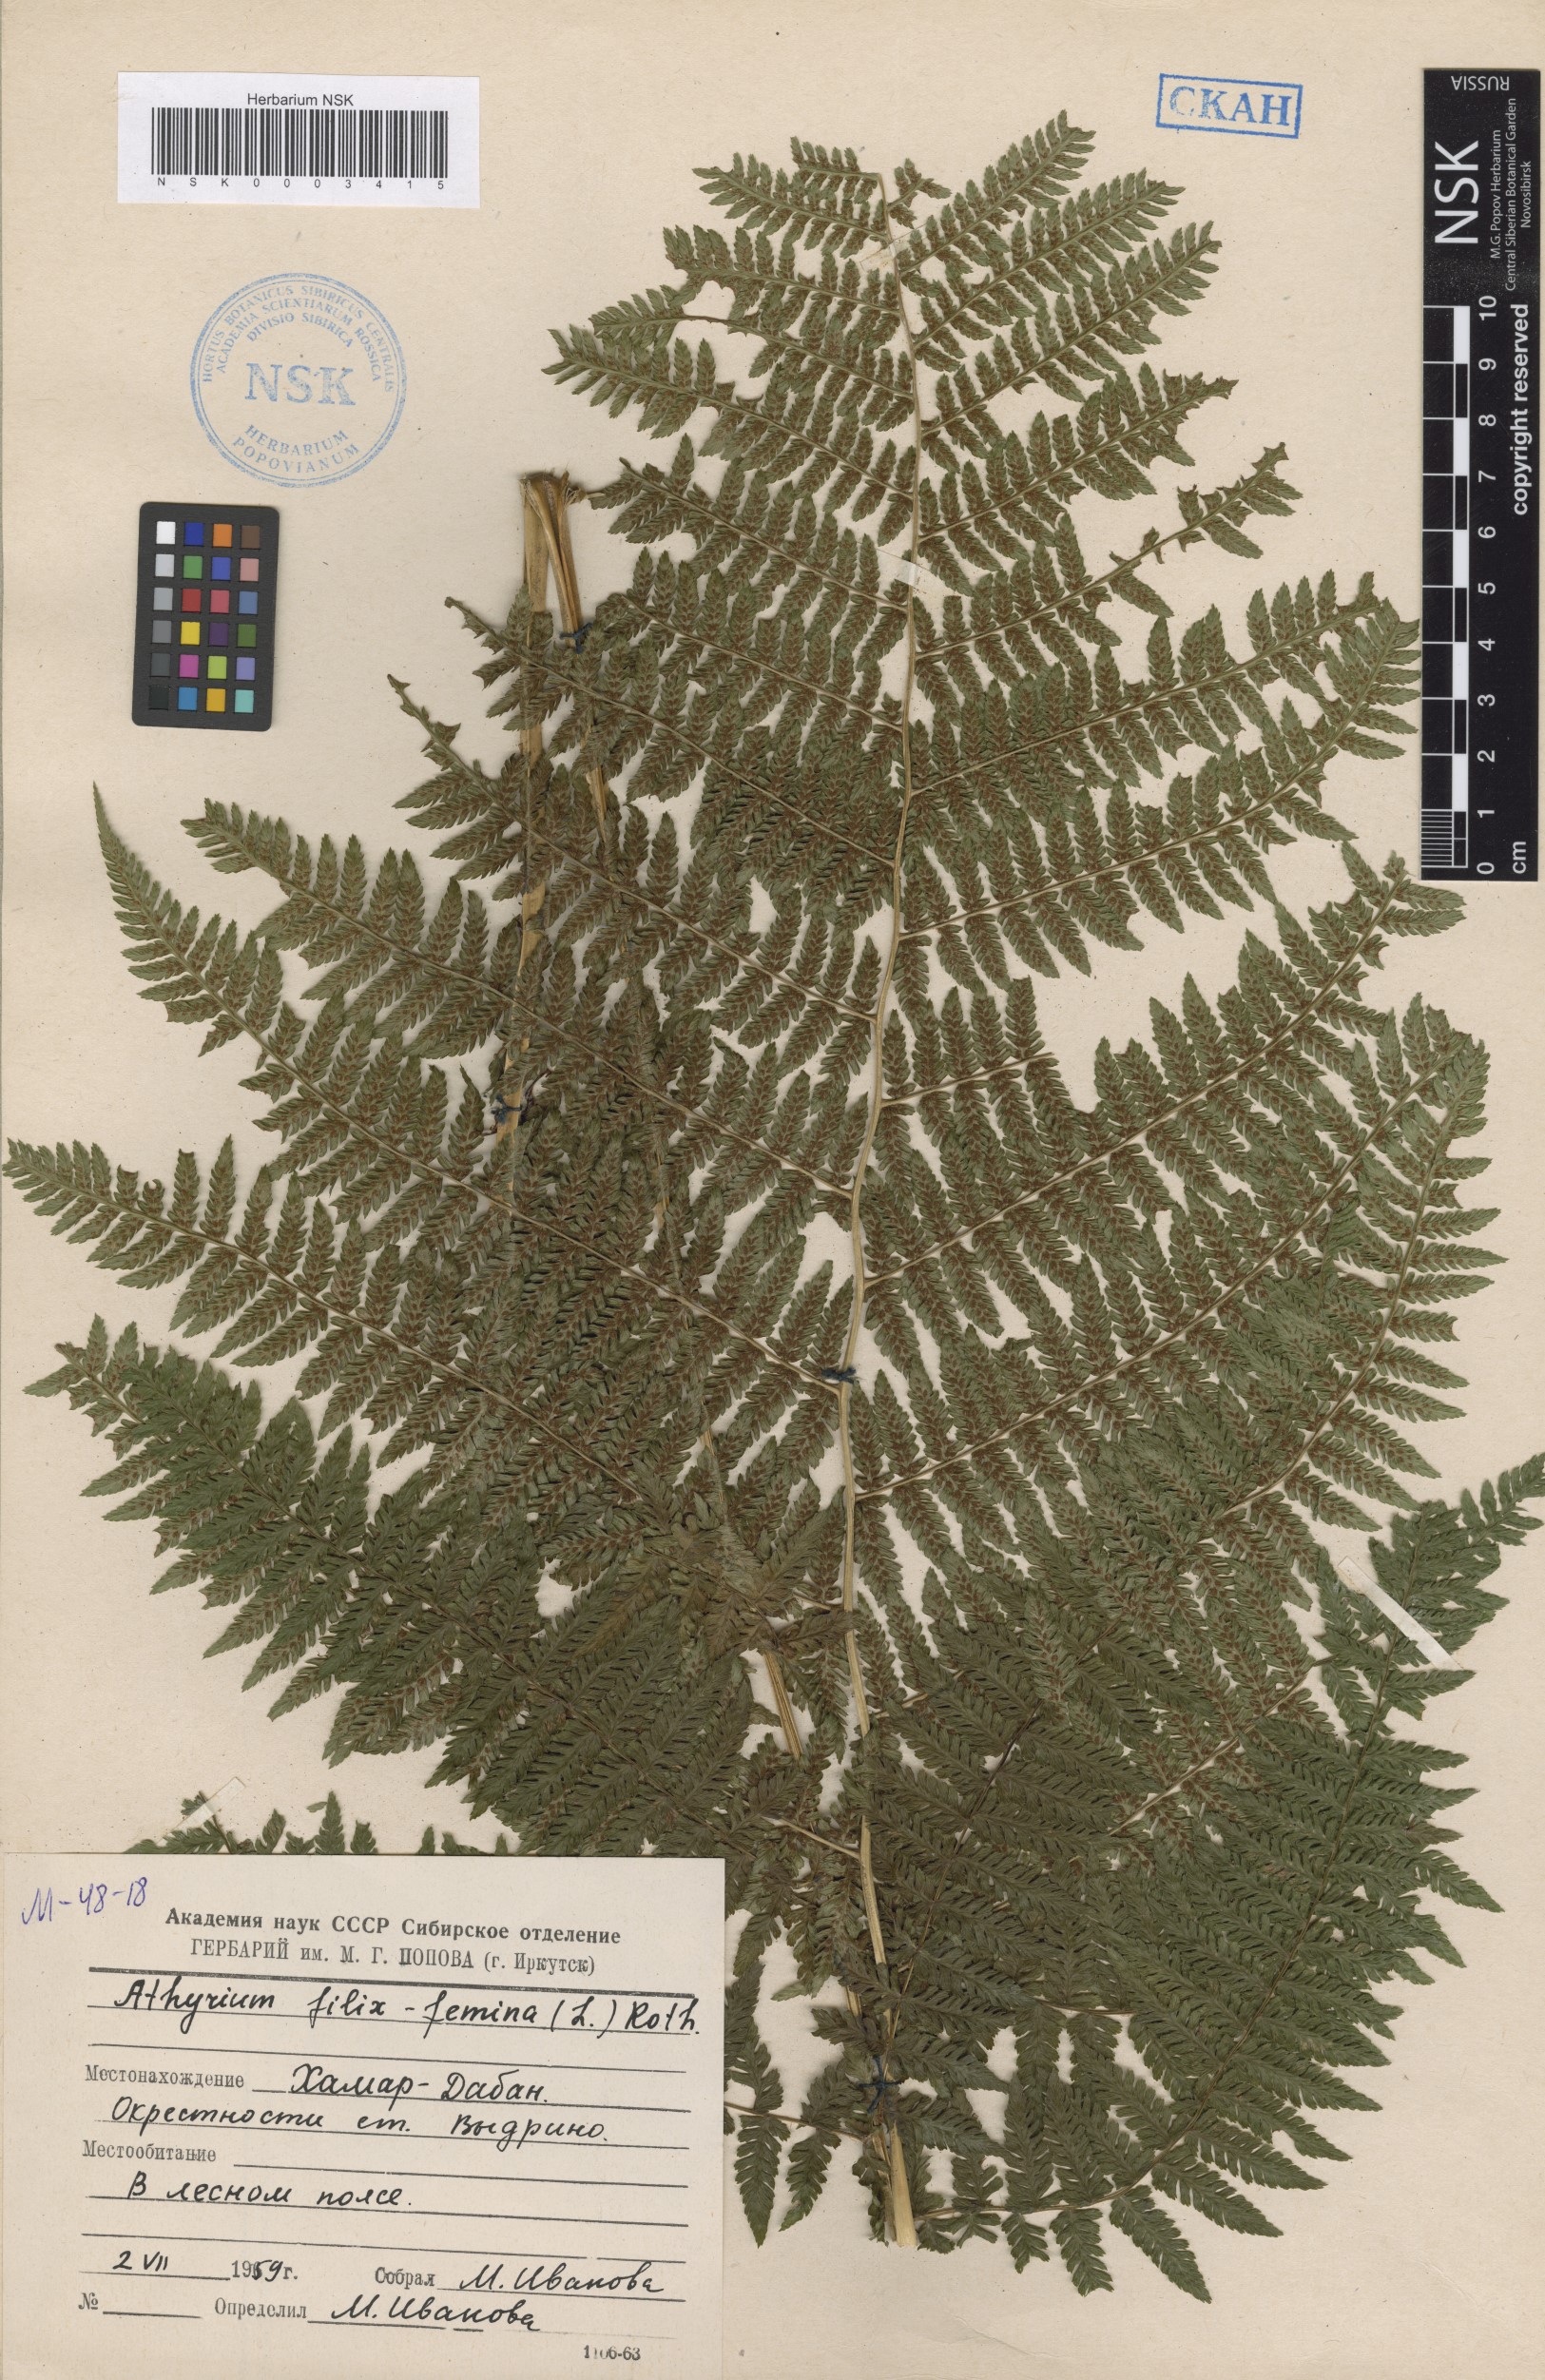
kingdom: Plantae
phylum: Tracheophyta
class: Polypodiopsida
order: Polypodiales
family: Athyriaceae
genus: Athyrium
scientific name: Athyrium filix-femina
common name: Lady fern
